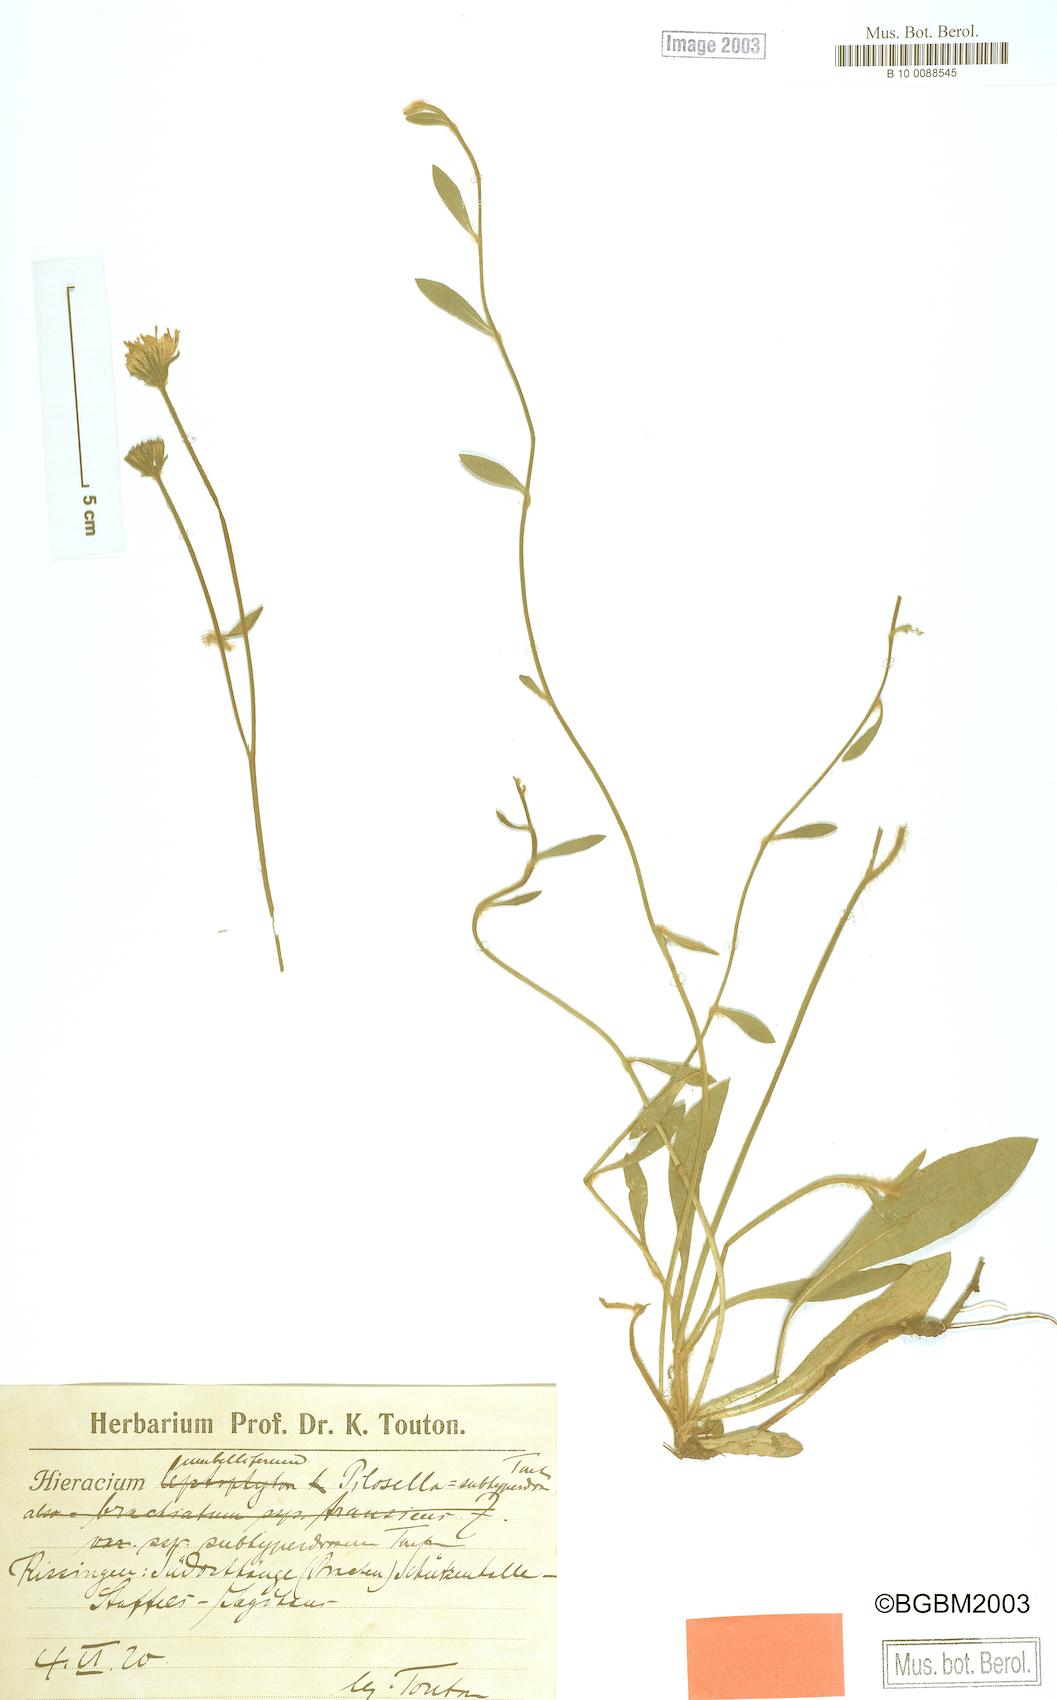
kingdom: Plantae
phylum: Tracheophyta
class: Magnoliopsida
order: Asterales
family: Asteraceae
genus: Pilosella
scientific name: Pilosella pilosellina
